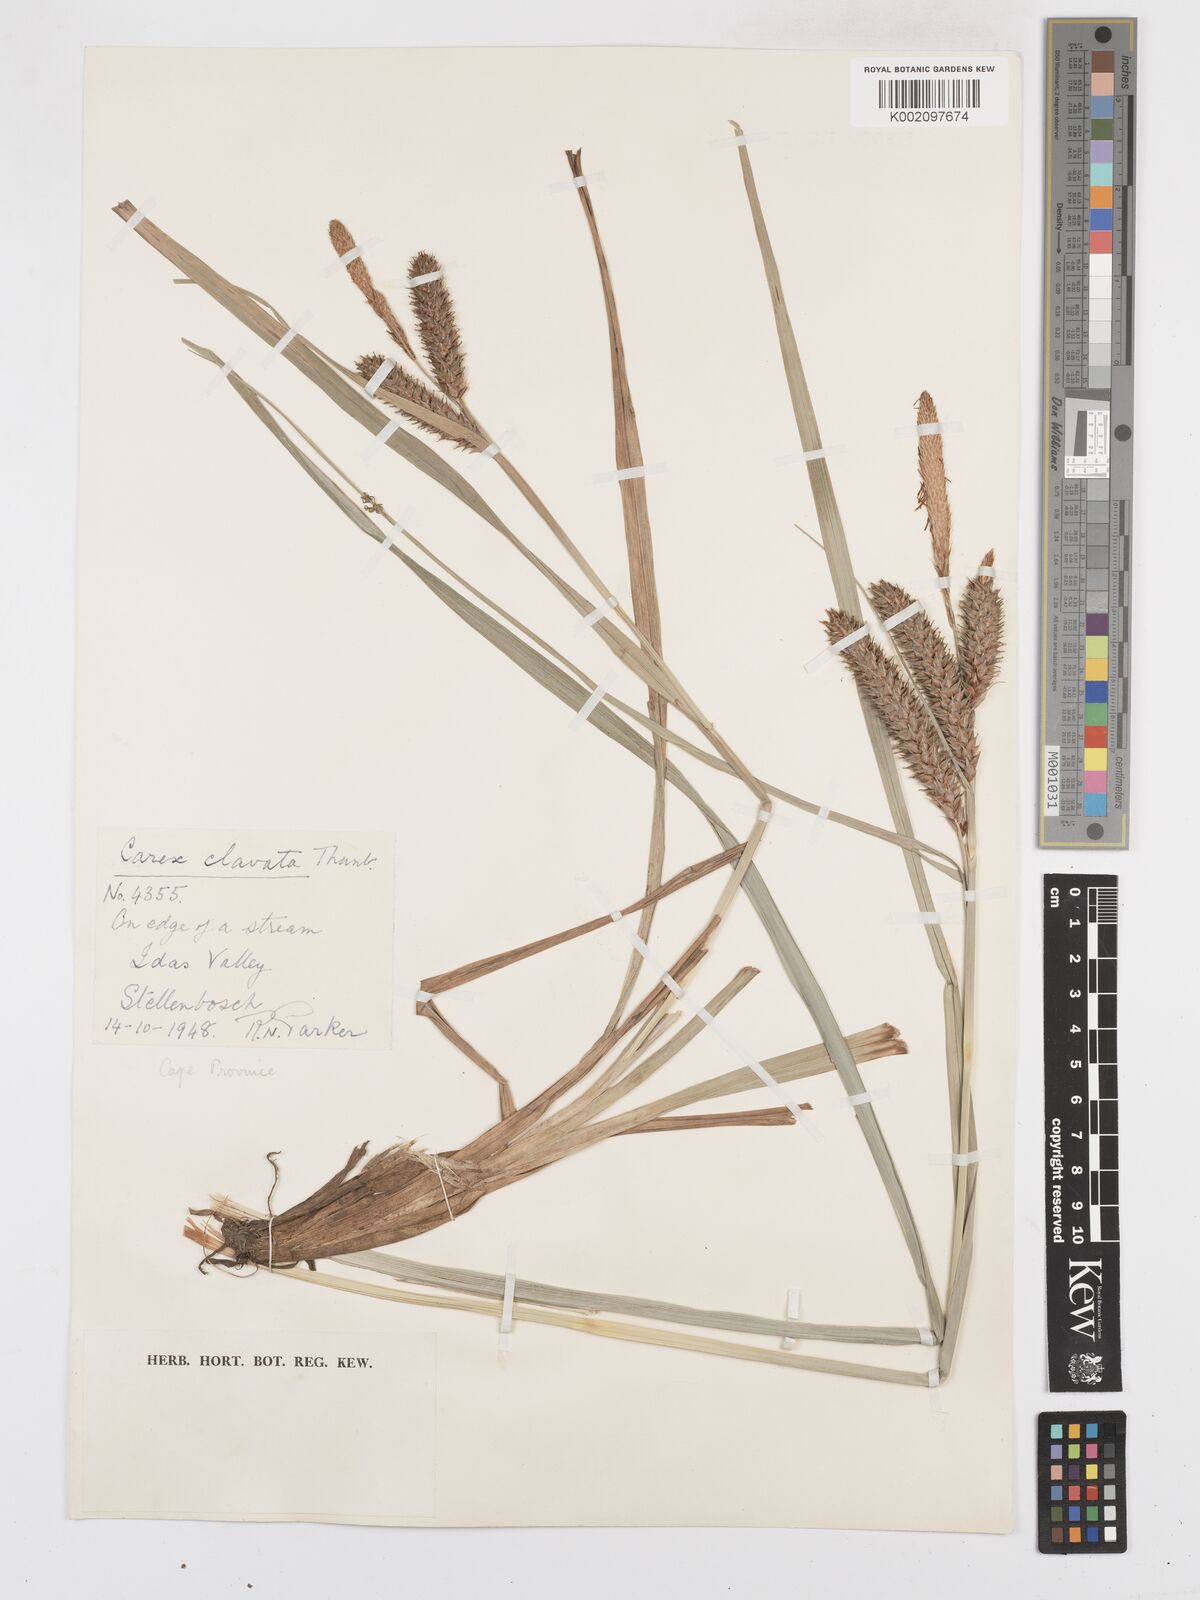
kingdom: Plantae
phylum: Tracheophyta
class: Liliopsida
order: Poales
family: Cyperaceae
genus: Carex
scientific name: Carex clavata
